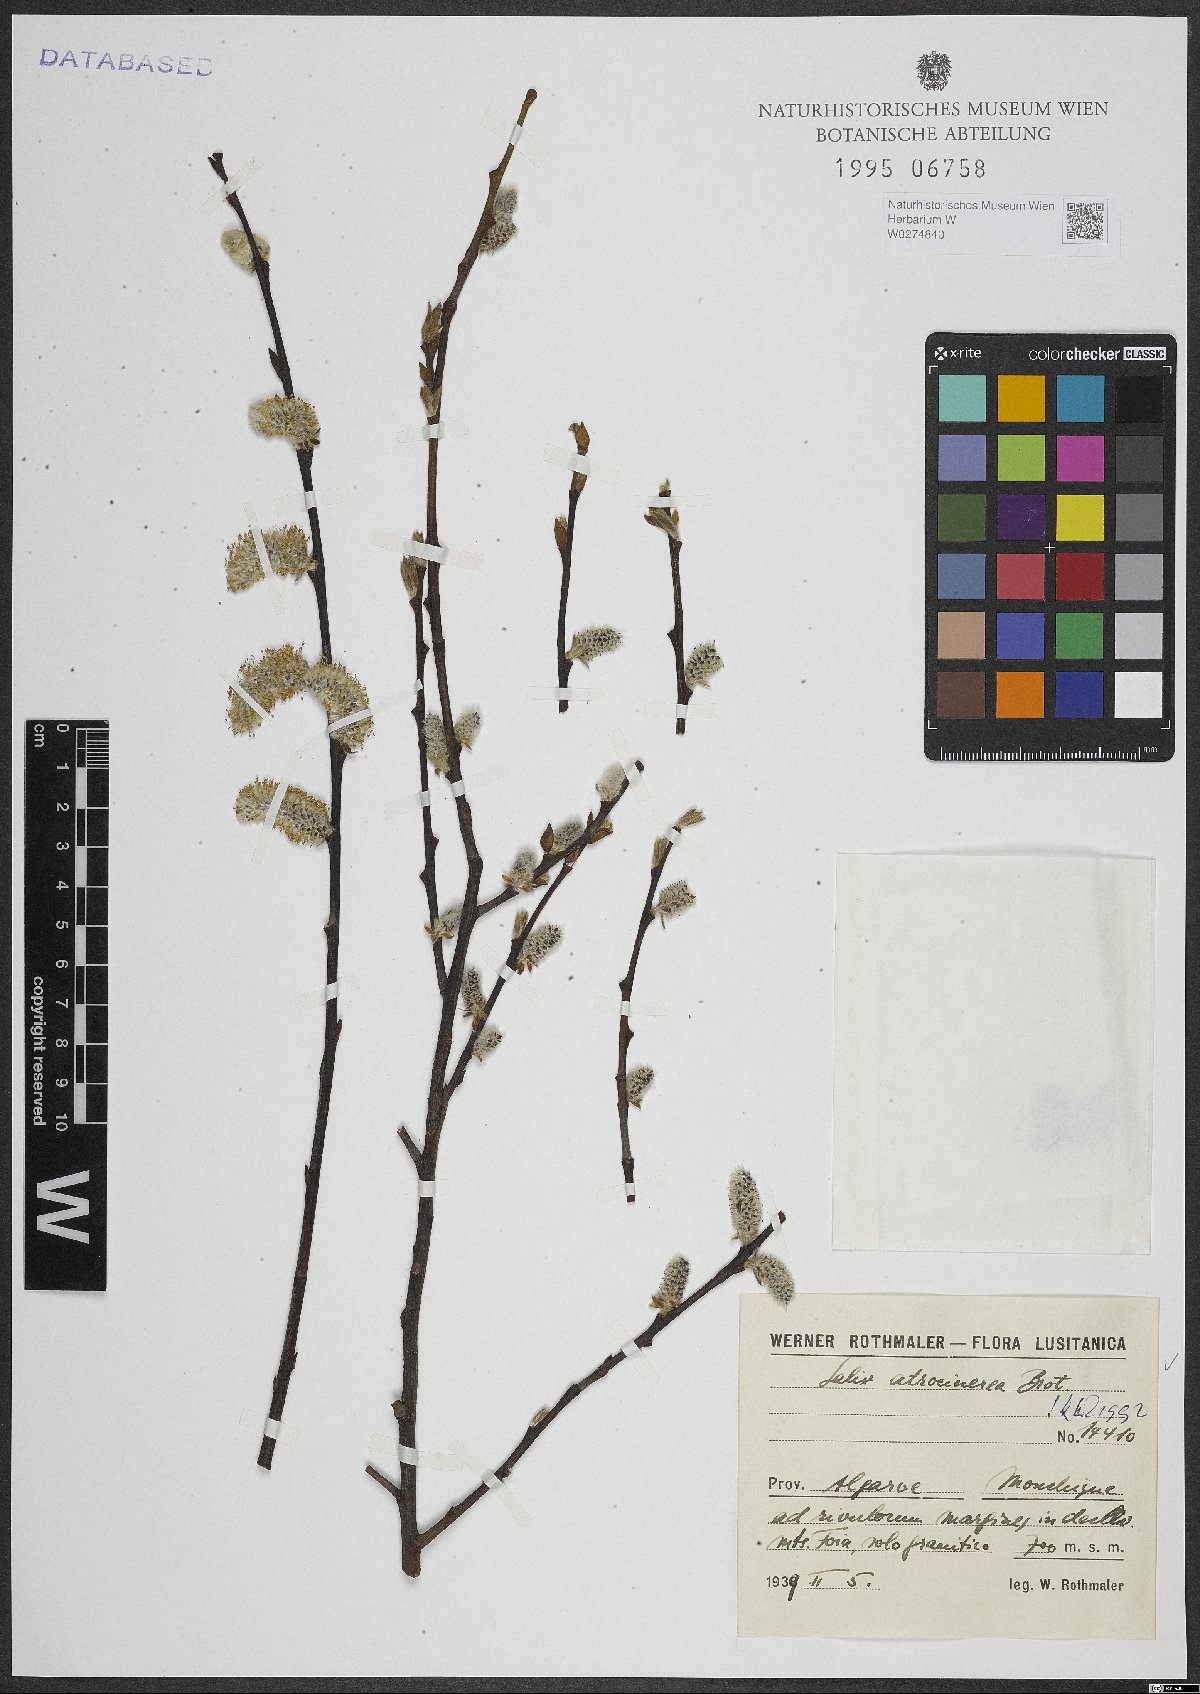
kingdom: Plantae
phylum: Tracheophyta
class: Magnoliopsida
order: Malpighiales
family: Salicaceae
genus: Salix
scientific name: Salix atrocinerea
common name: Rusty willow
